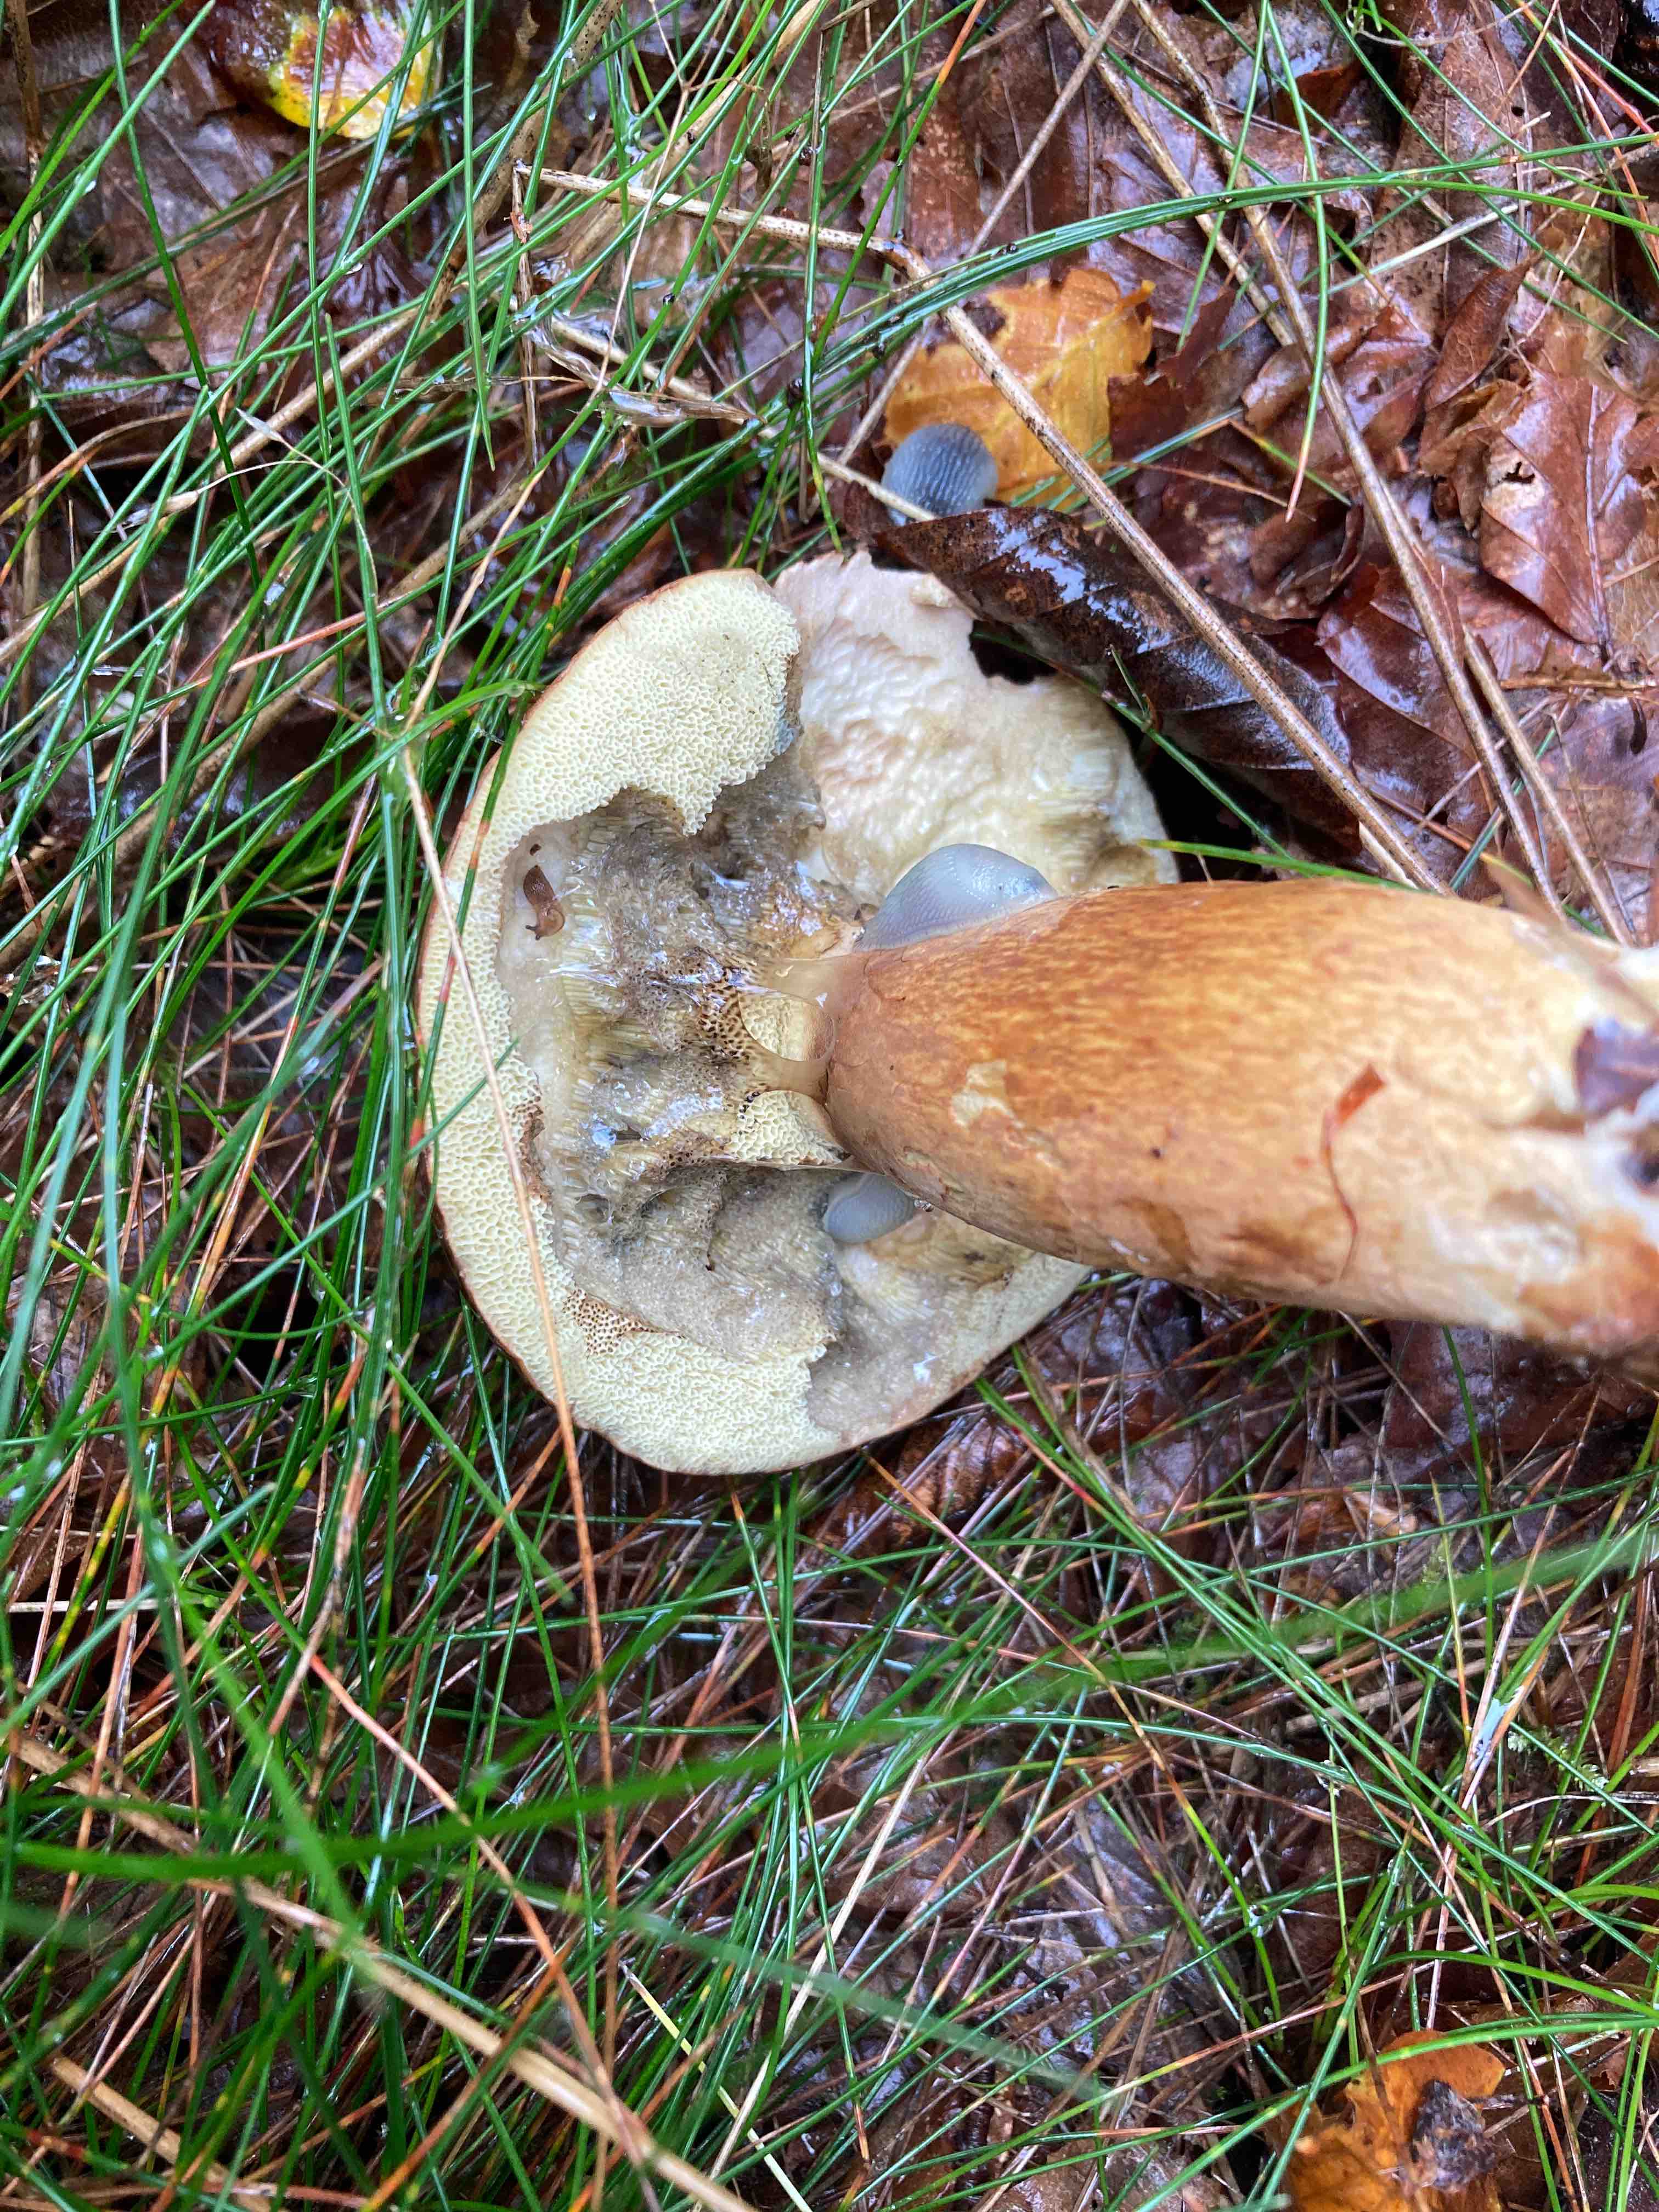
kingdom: Fungi
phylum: Basidiomycota
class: Agaricomycetes
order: Boletales
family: Boletaceae
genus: Imleria
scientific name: Imleria badia
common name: brunstokket rørhat
